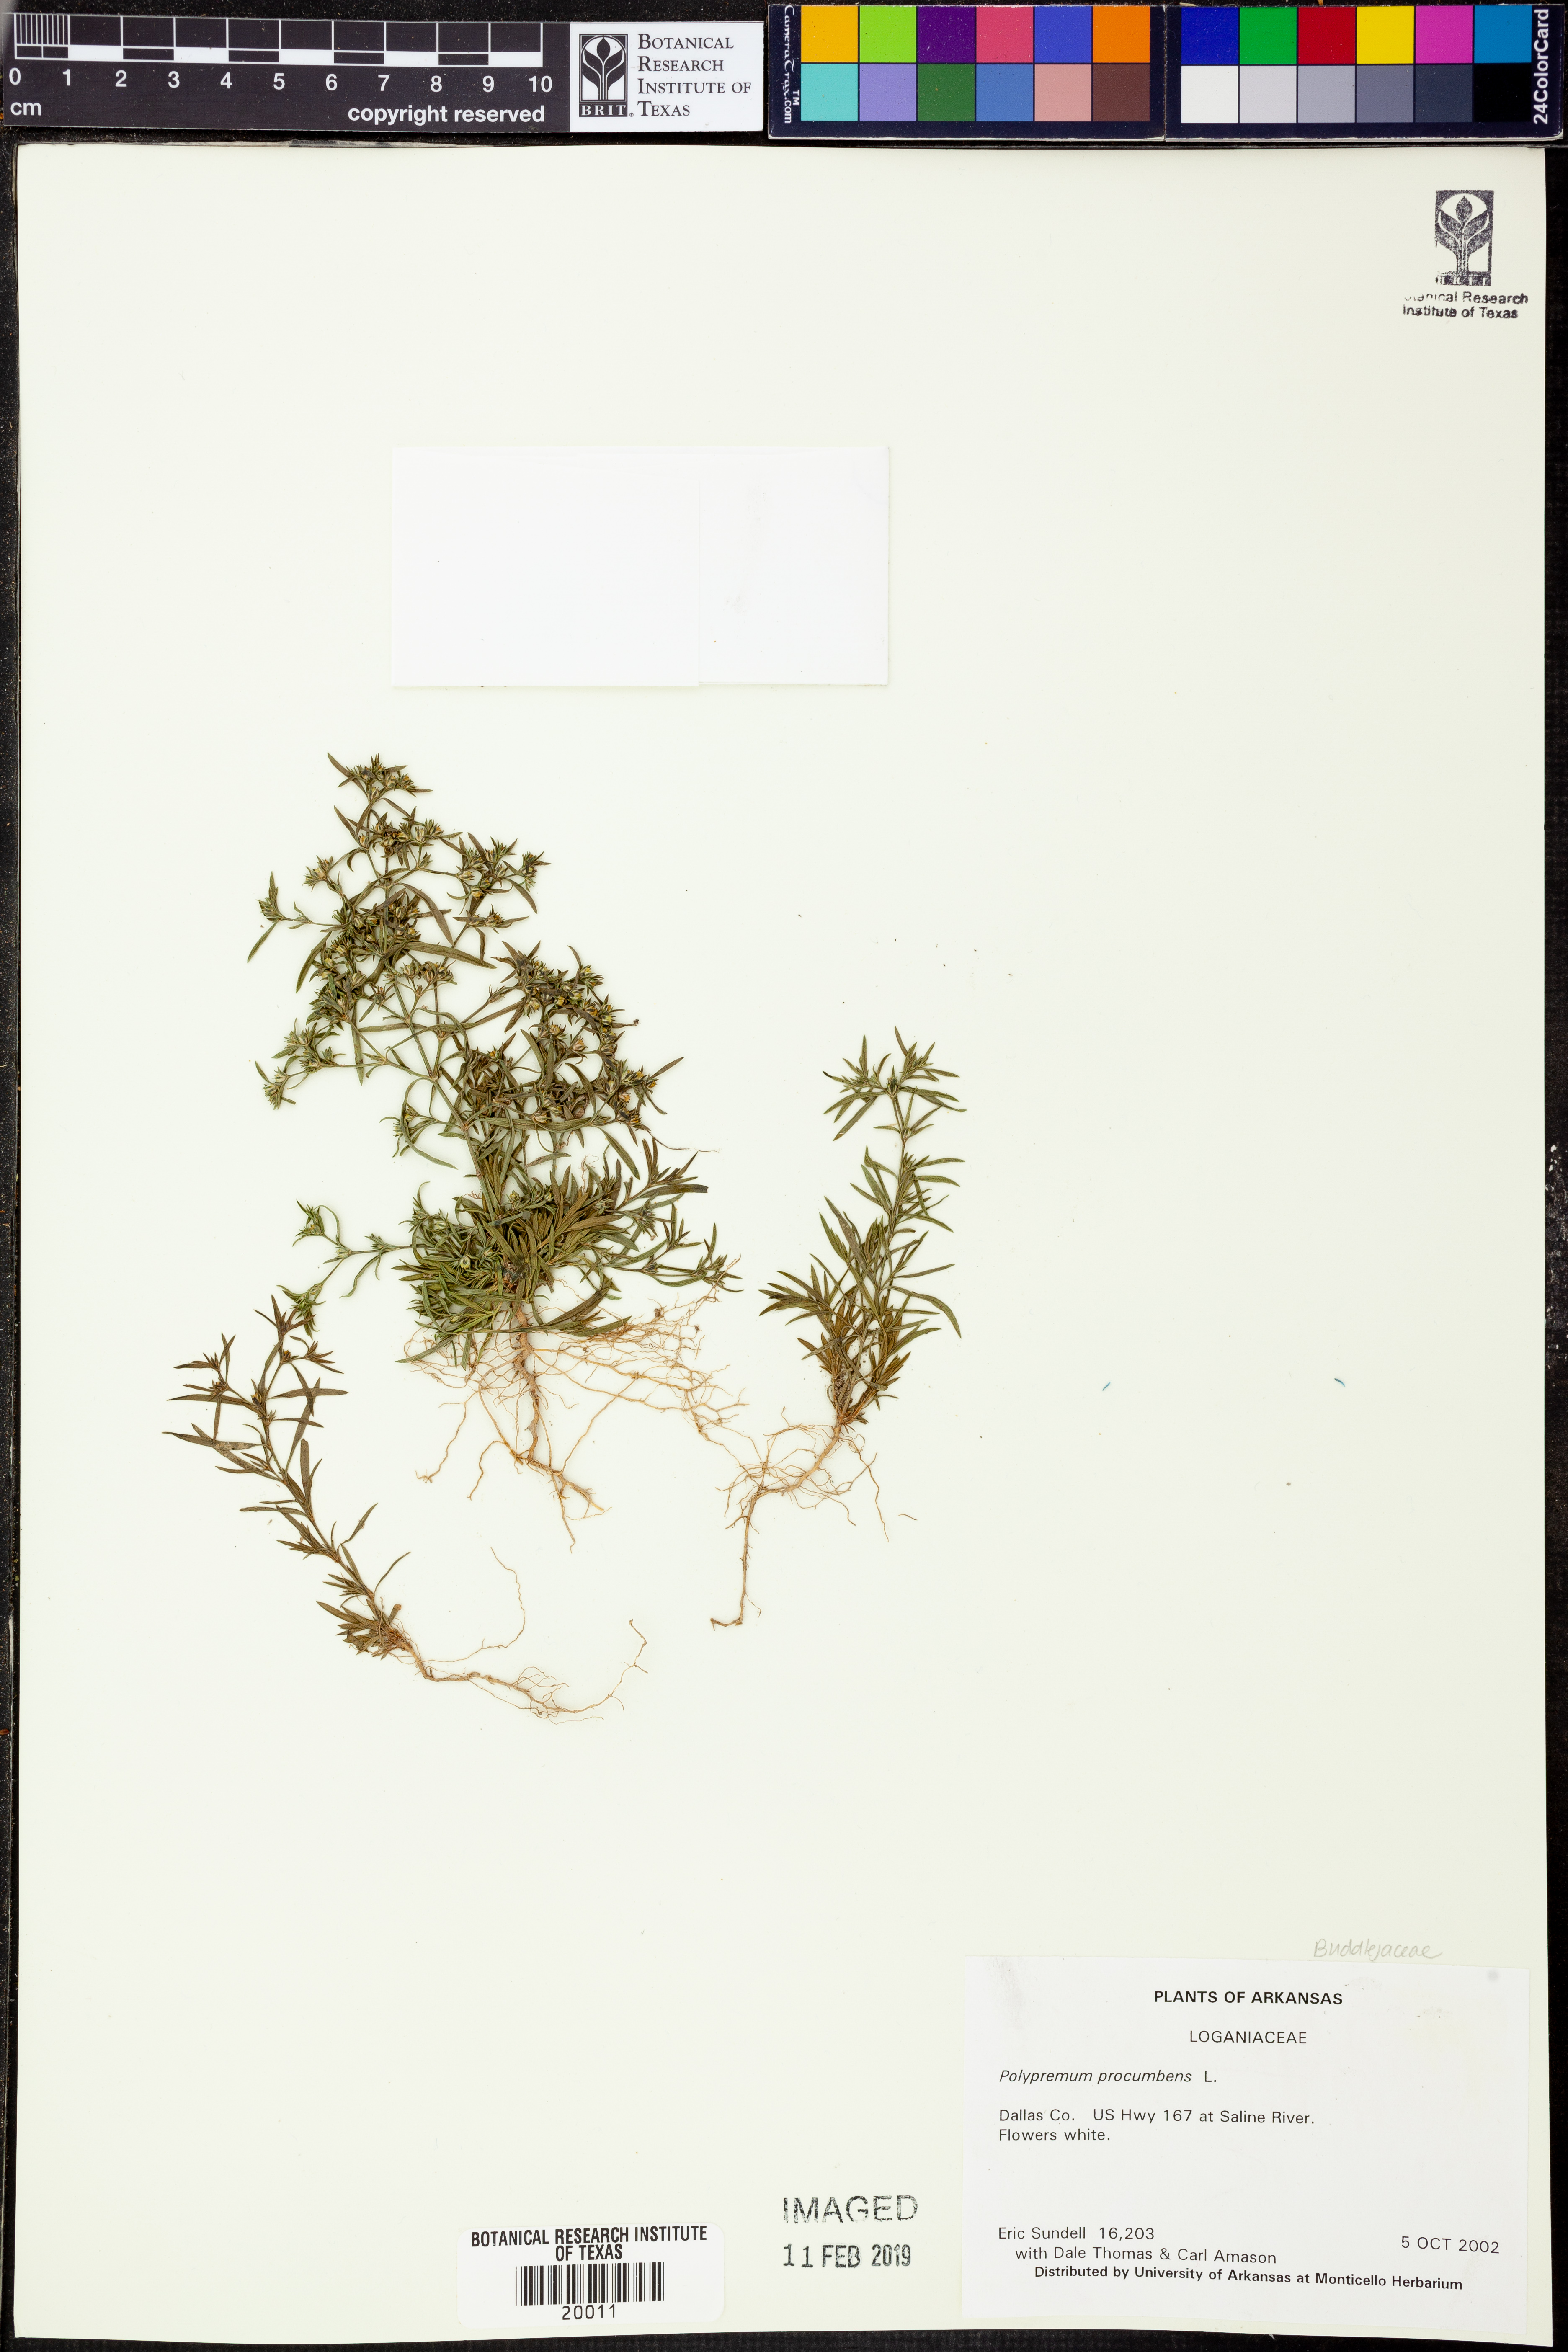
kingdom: Plantae
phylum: Tracheophyta
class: Magnoliopsida
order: Lamiales
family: Tetrachondraceae
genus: Polypremum
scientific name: Polypremum procumbens
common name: Juniper-leaf
